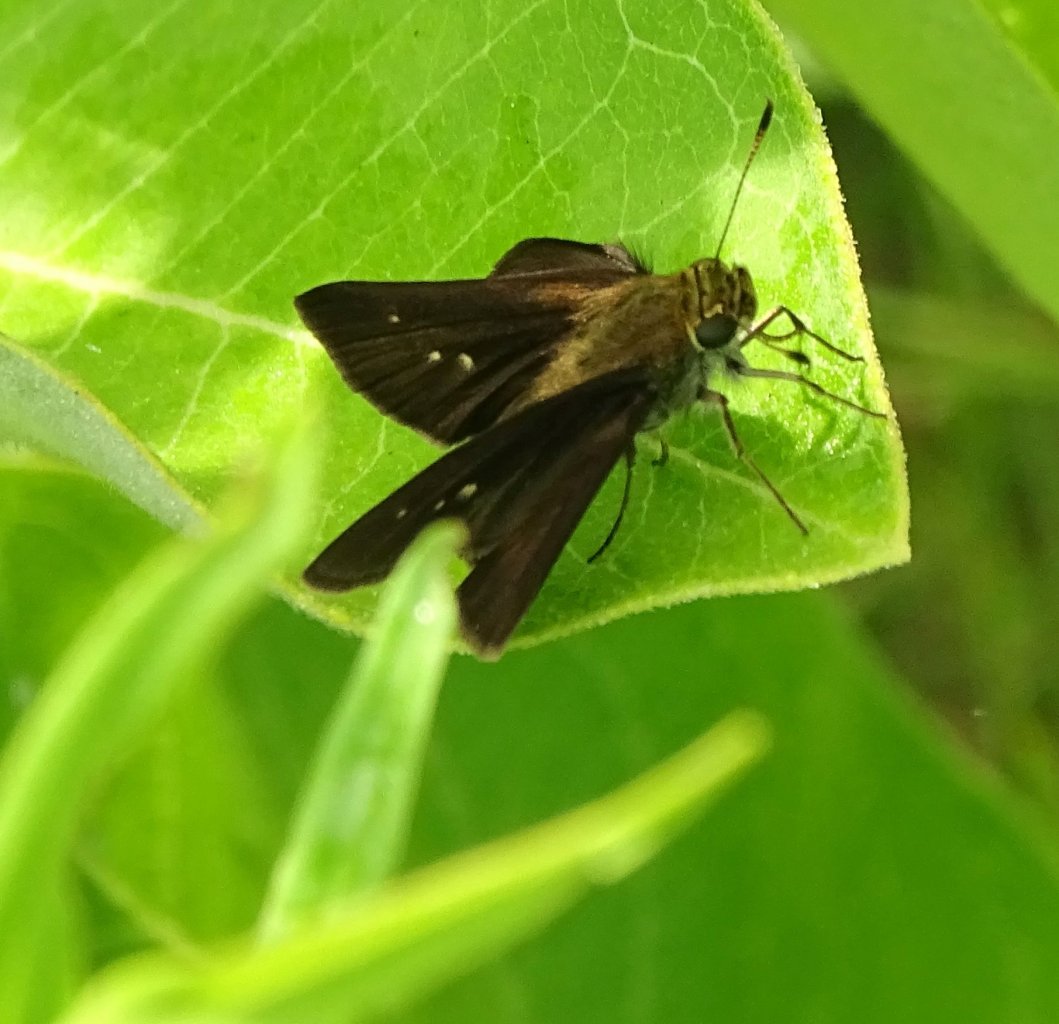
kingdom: Animalia
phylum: Arthropoda
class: Insecta
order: Lepidoptera
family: Hesperiidae
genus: Euphyes
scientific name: Euphyes vestris
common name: Dun Skipper
